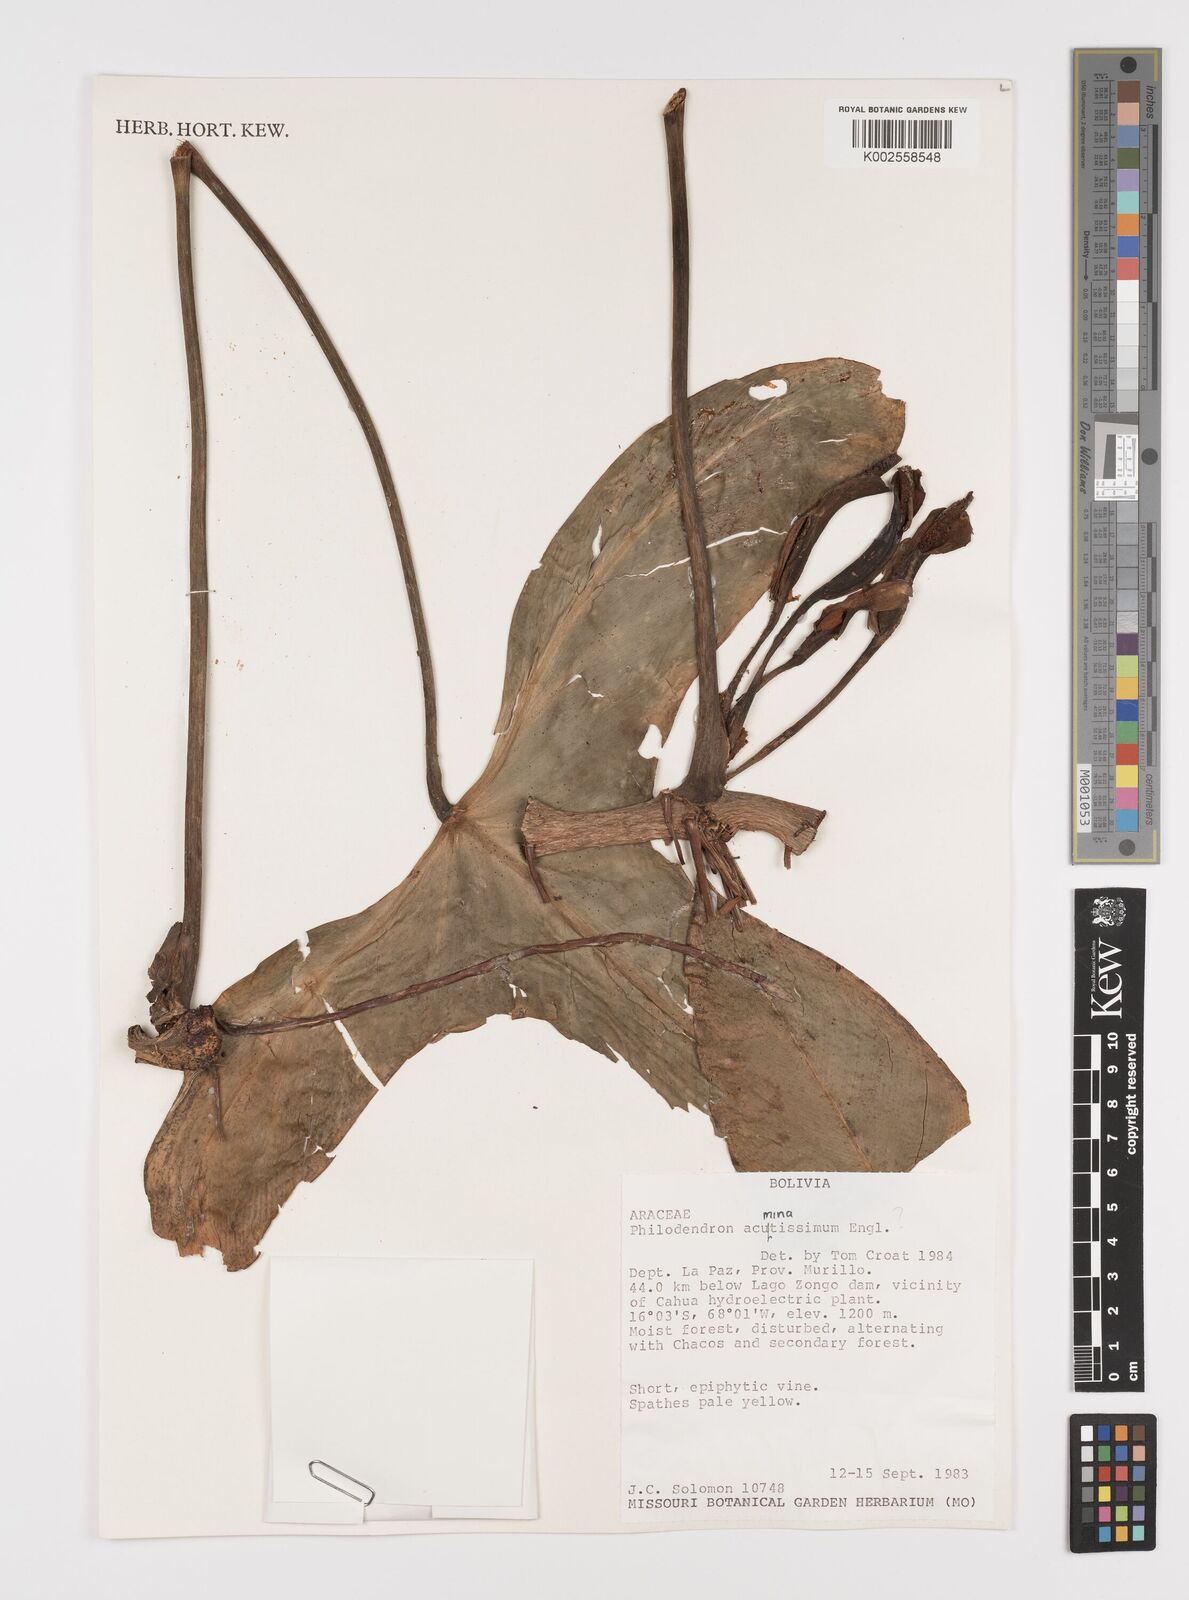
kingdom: Plantae
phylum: Tracheophyta
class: Liliopsida
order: Alismatales
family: Araceae
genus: Philodendron
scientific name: Philodendron acuminatissimum
